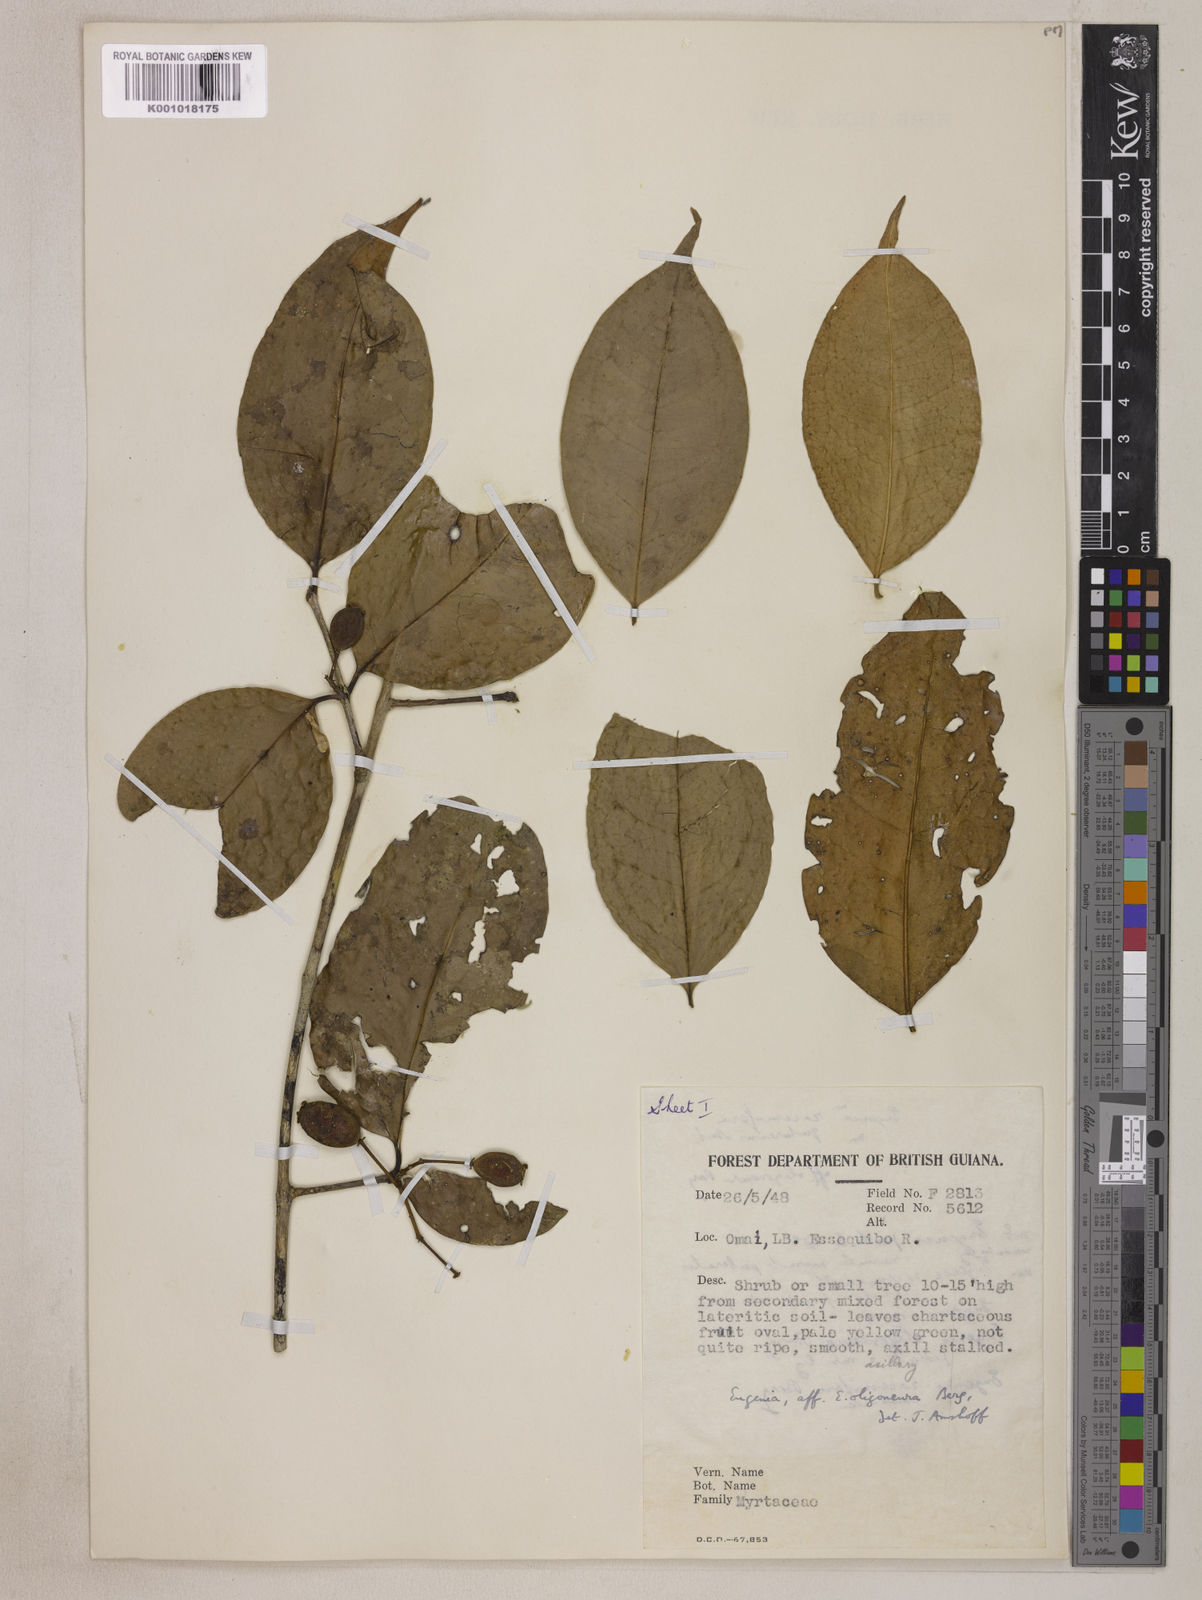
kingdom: Plantae
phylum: Tracheophyta
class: Magnoliopsida
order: Myrtales
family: Myrtaceae
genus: Eugenia
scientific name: Eugenia florida
